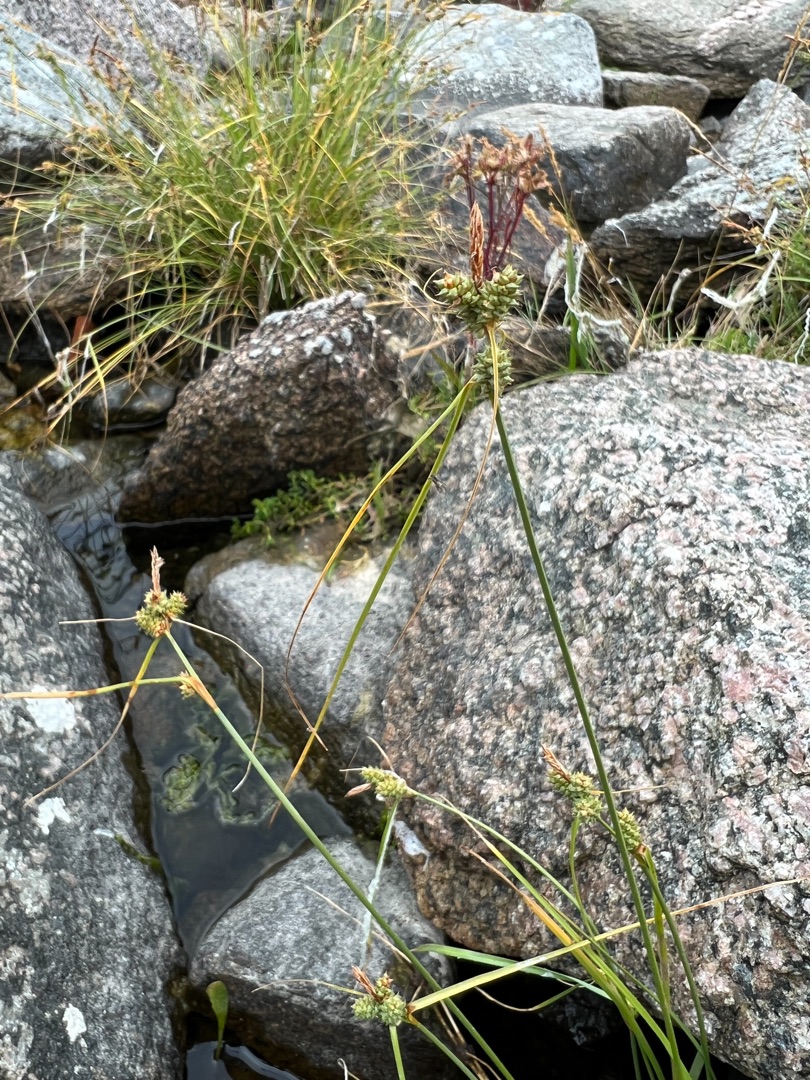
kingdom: Plantae
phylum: Tracheophyta
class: Liliopsida
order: Poales
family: Cyperaceae
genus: Carex
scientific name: Carex extensa
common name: Udspilet star
